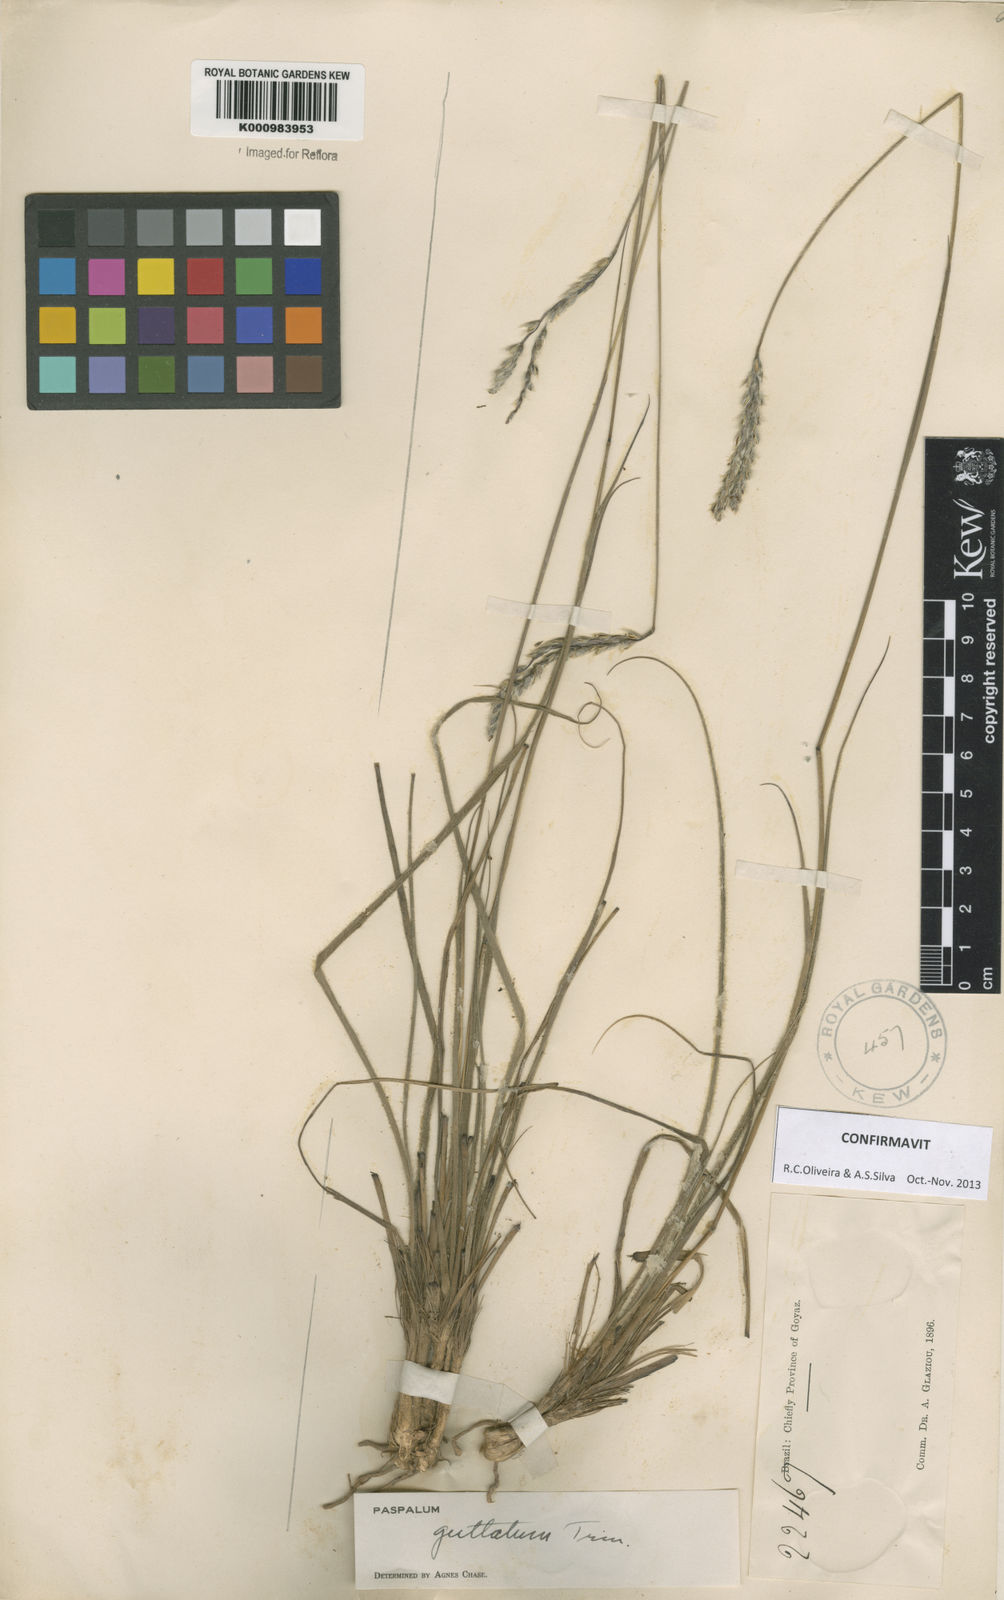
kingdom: Plantae
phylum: Tracheophyta
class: Liliopsida
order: Poales
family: Poaceae
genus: Paspalum
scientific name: Paspalum guttatum
